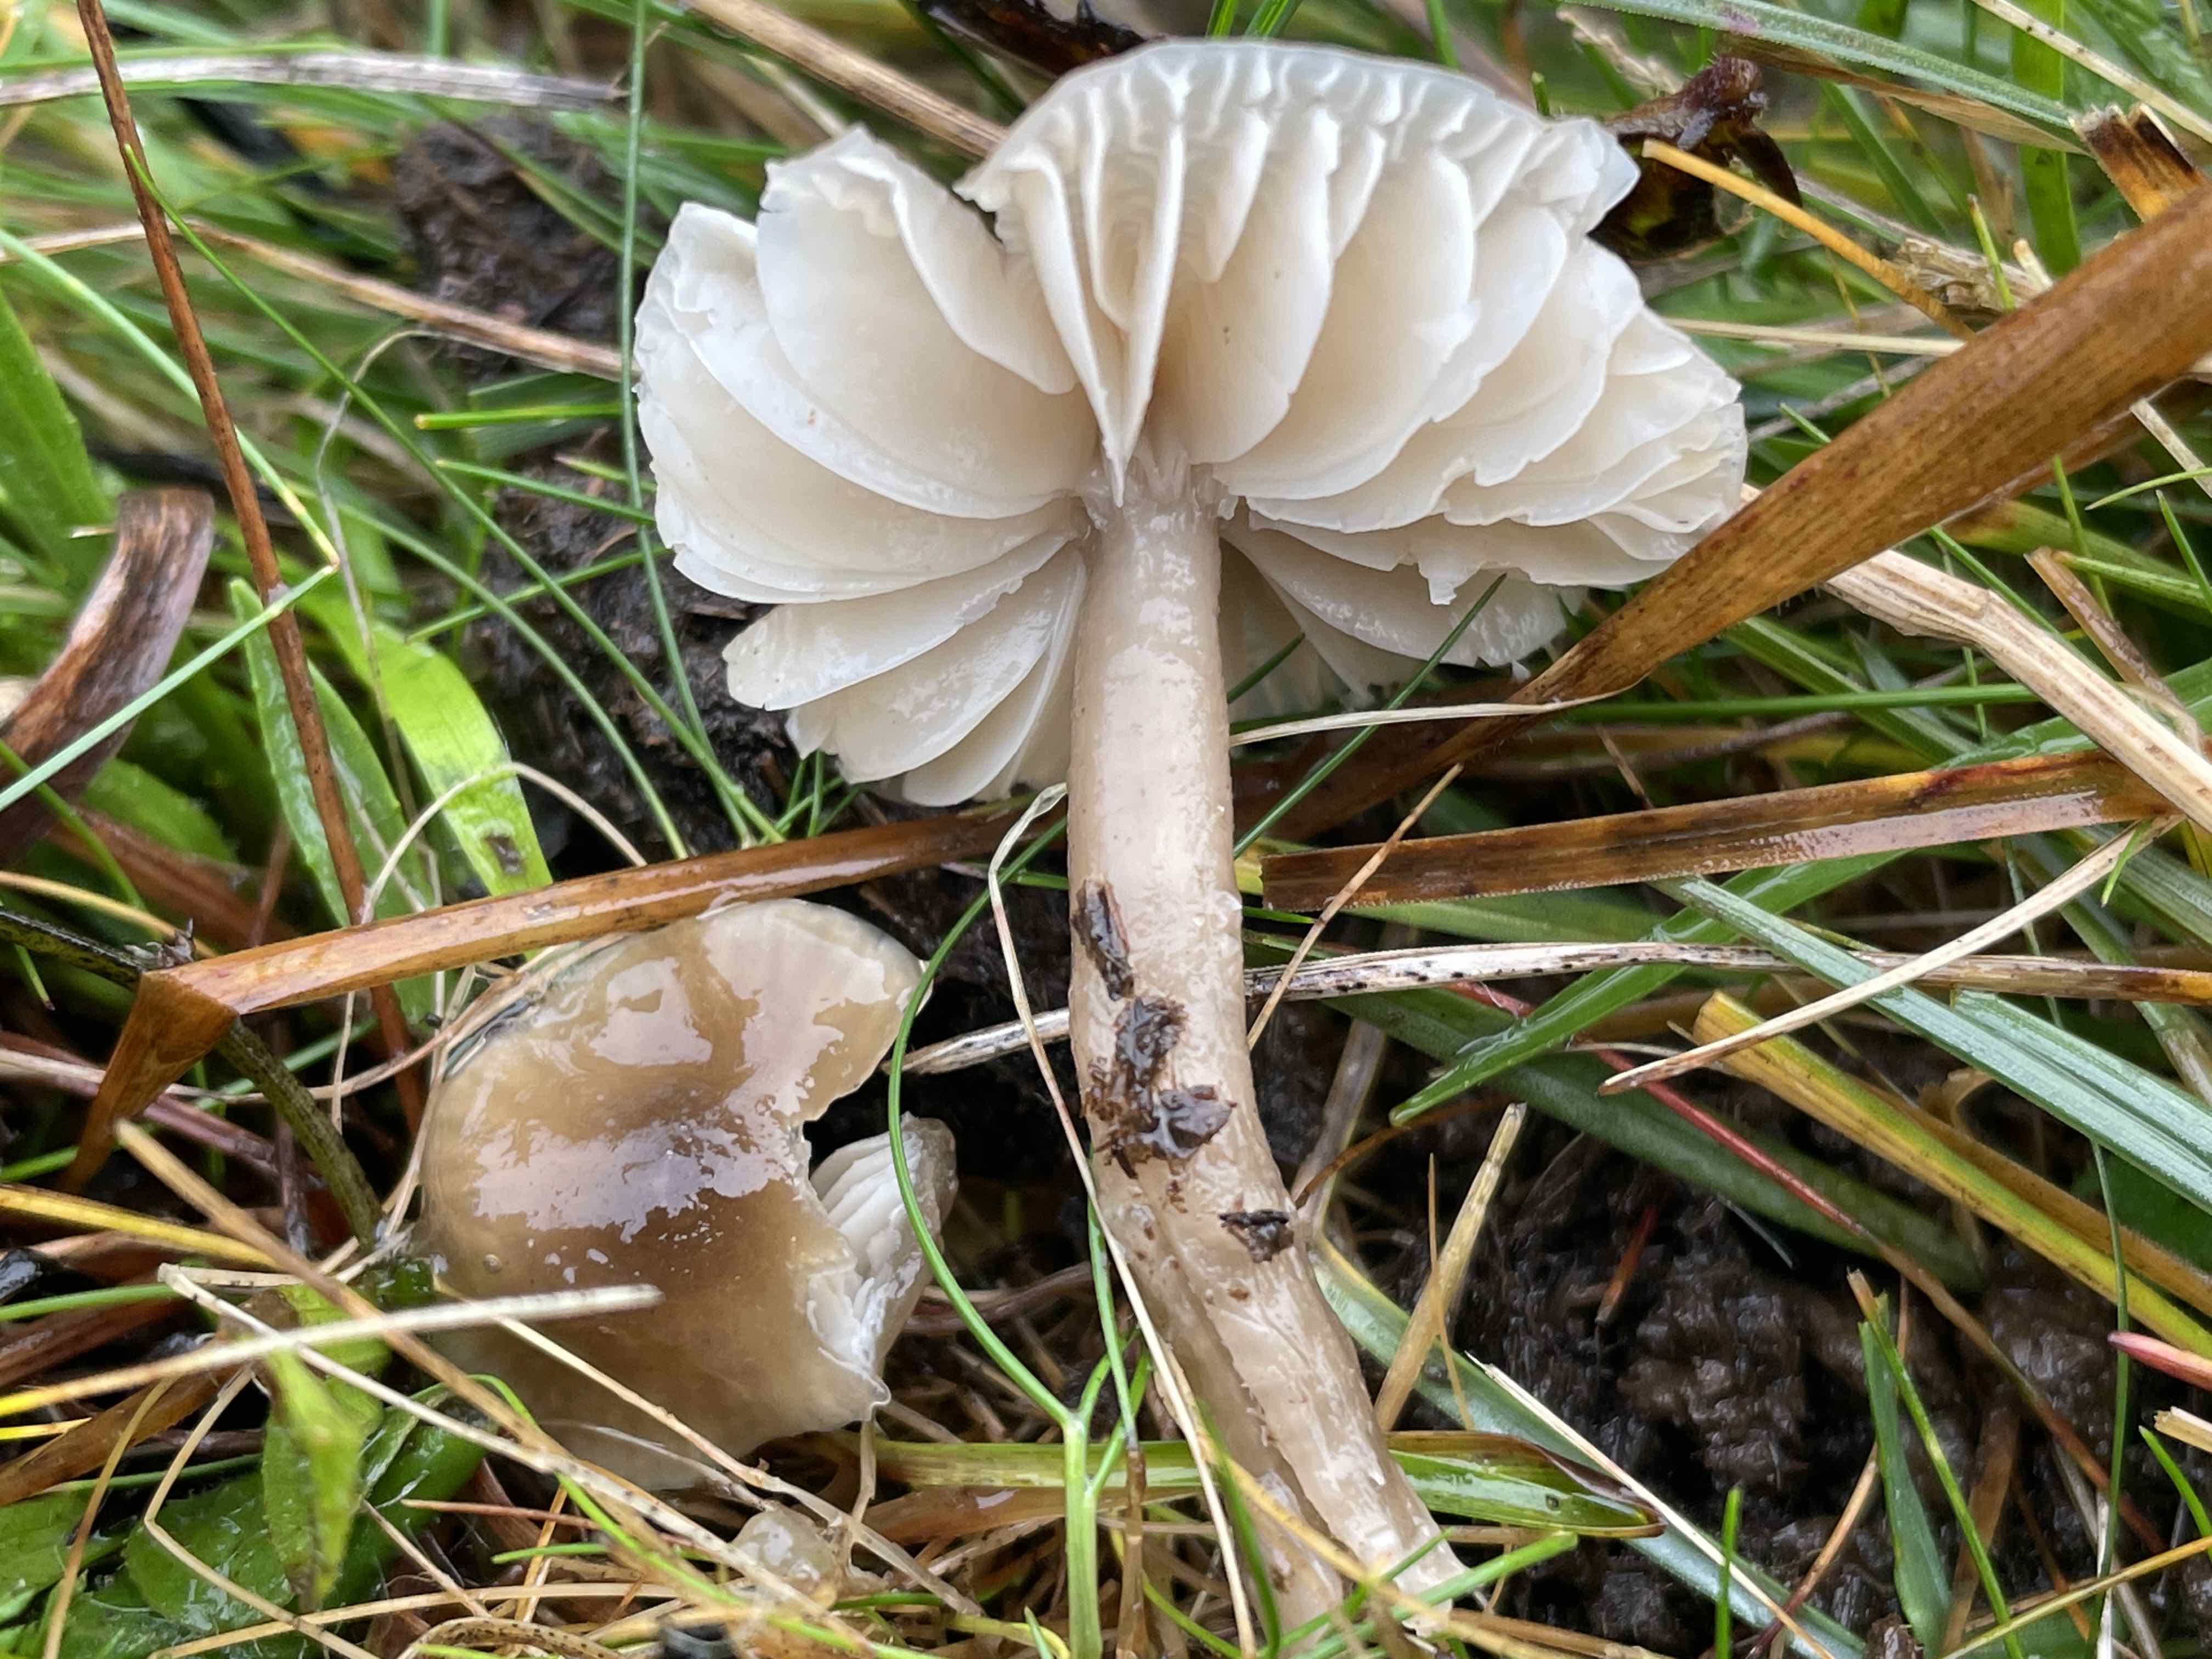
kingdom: Fungi
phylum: Basidiomycota
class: Agaricomycetes
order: Agaricales
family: Hygrophoraceae
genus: Gliophorus
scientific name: Gliophorus irrigatus
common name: slimet vokshat
